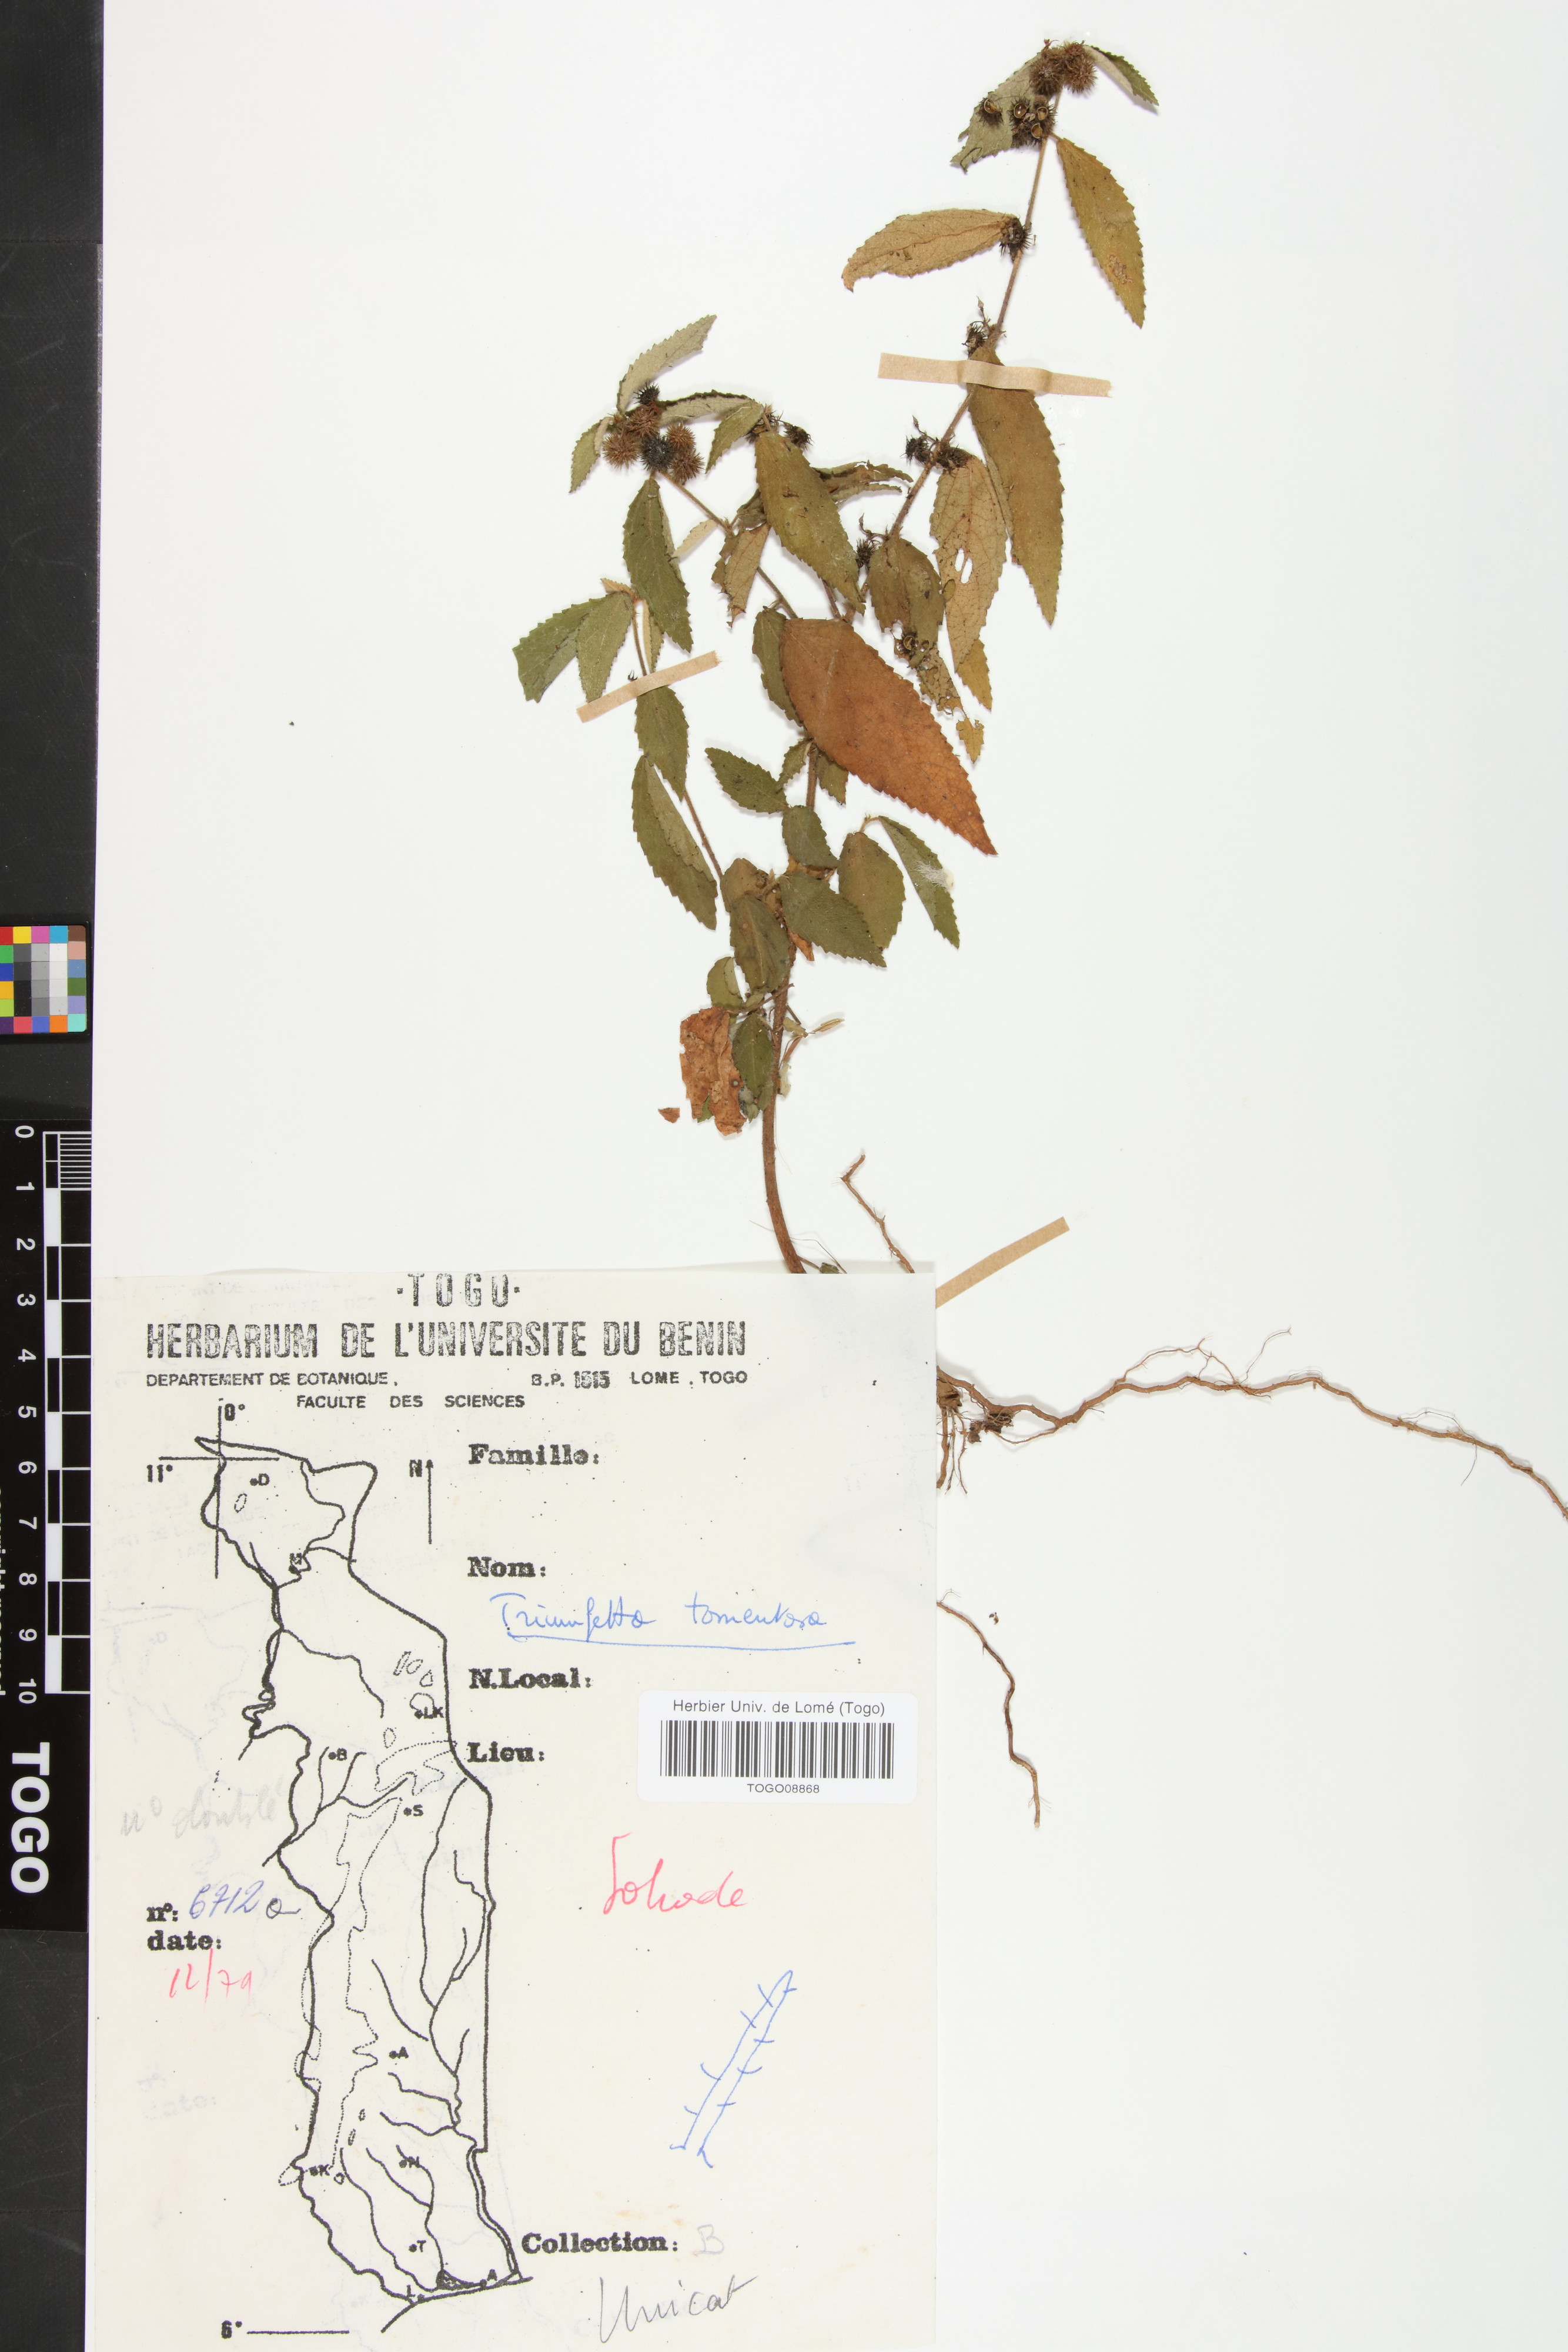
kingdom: Plantae
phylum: Tracheophyta
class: Magnoliopsida
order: Malvales
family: Malvaceae
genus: Triumfetta
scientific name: Triumfetta tomentosa
